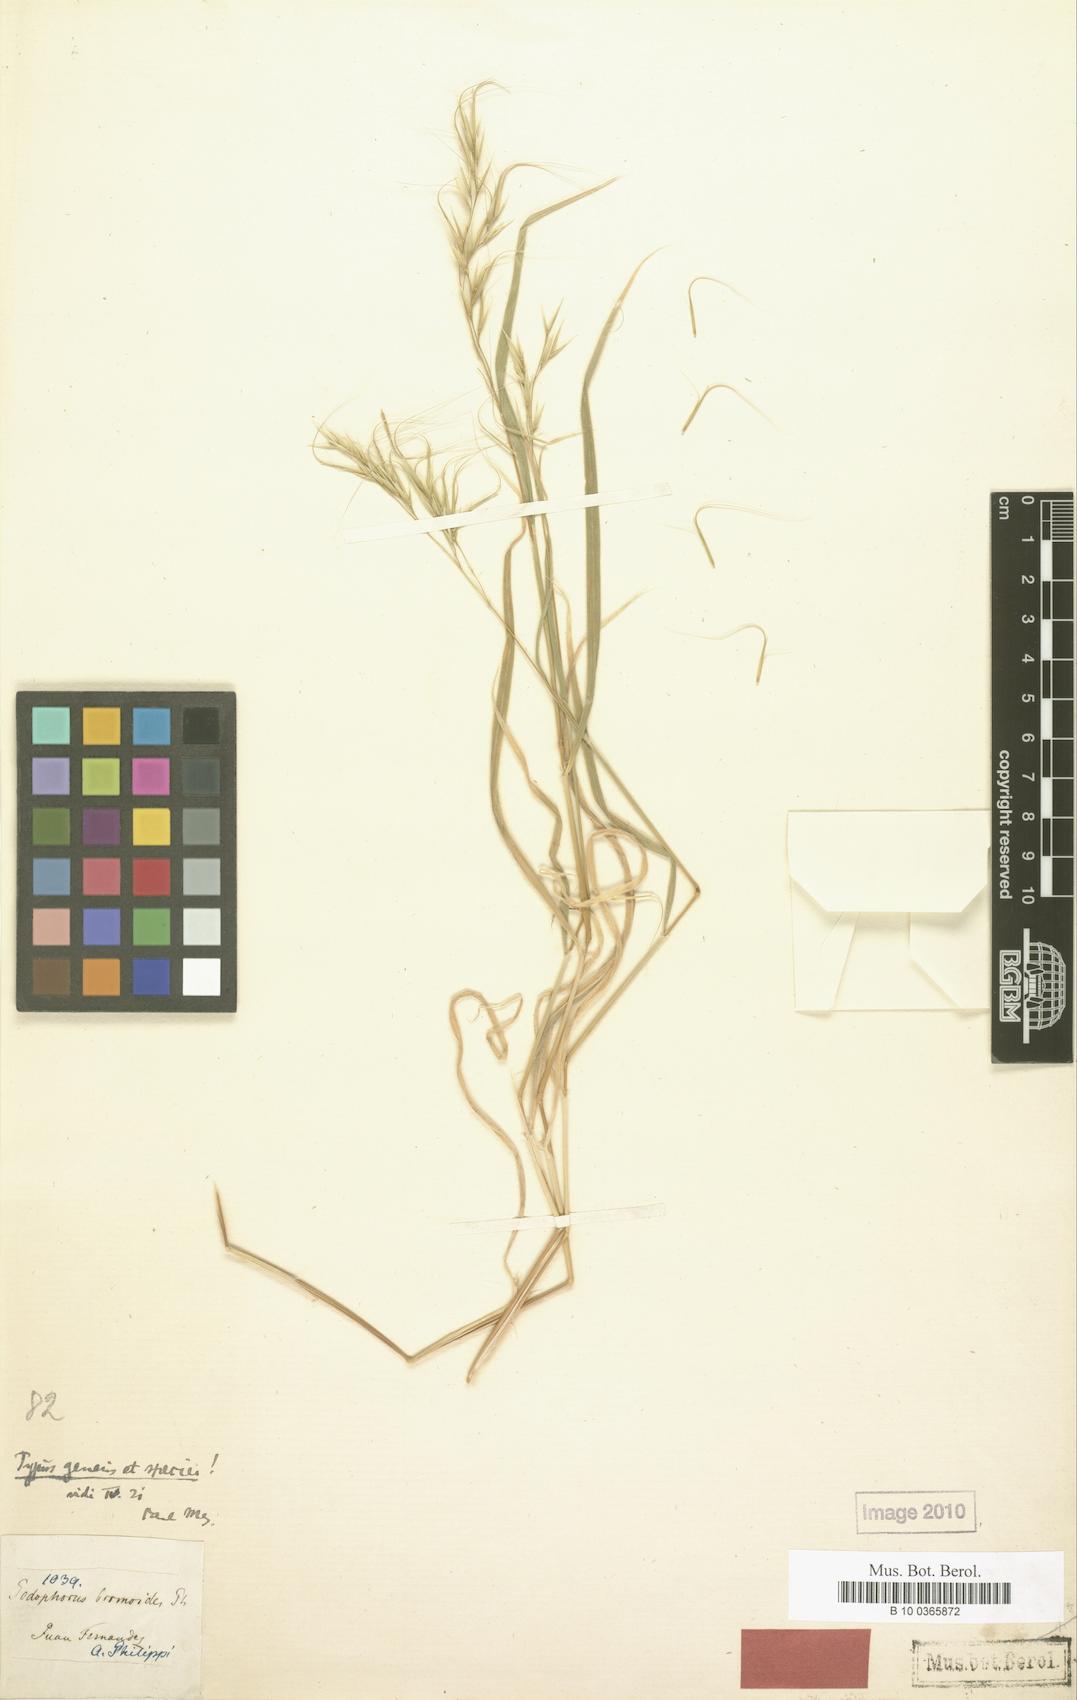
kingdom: Plantae
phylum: Tracheophyta
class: Liliopsida
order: Poales
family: Poaceae
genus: Festuca
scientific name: Festuca masatierrae
